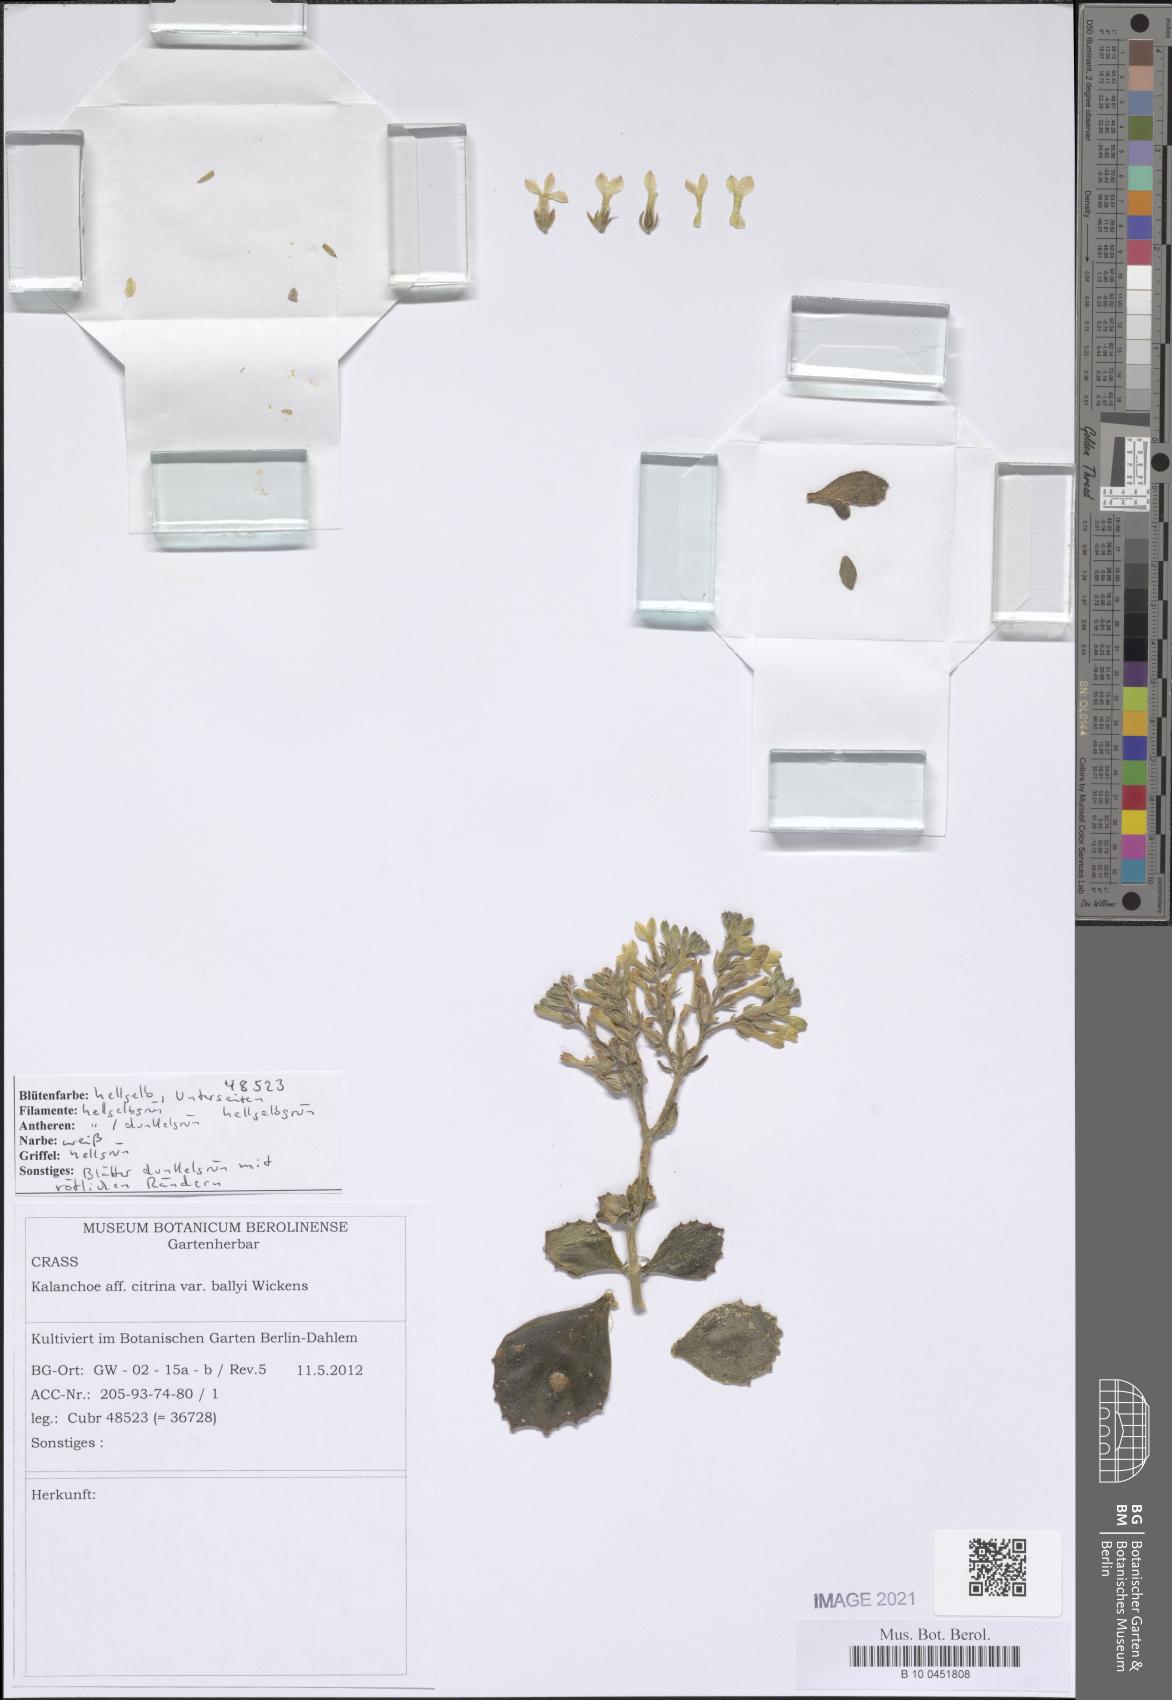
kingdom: Plantae
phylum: Tracheophyta
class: Magnoliopsida
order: Saxifragales
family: Crassulaceae
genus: Kalanchoe
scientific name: Kalanchoe citrina
